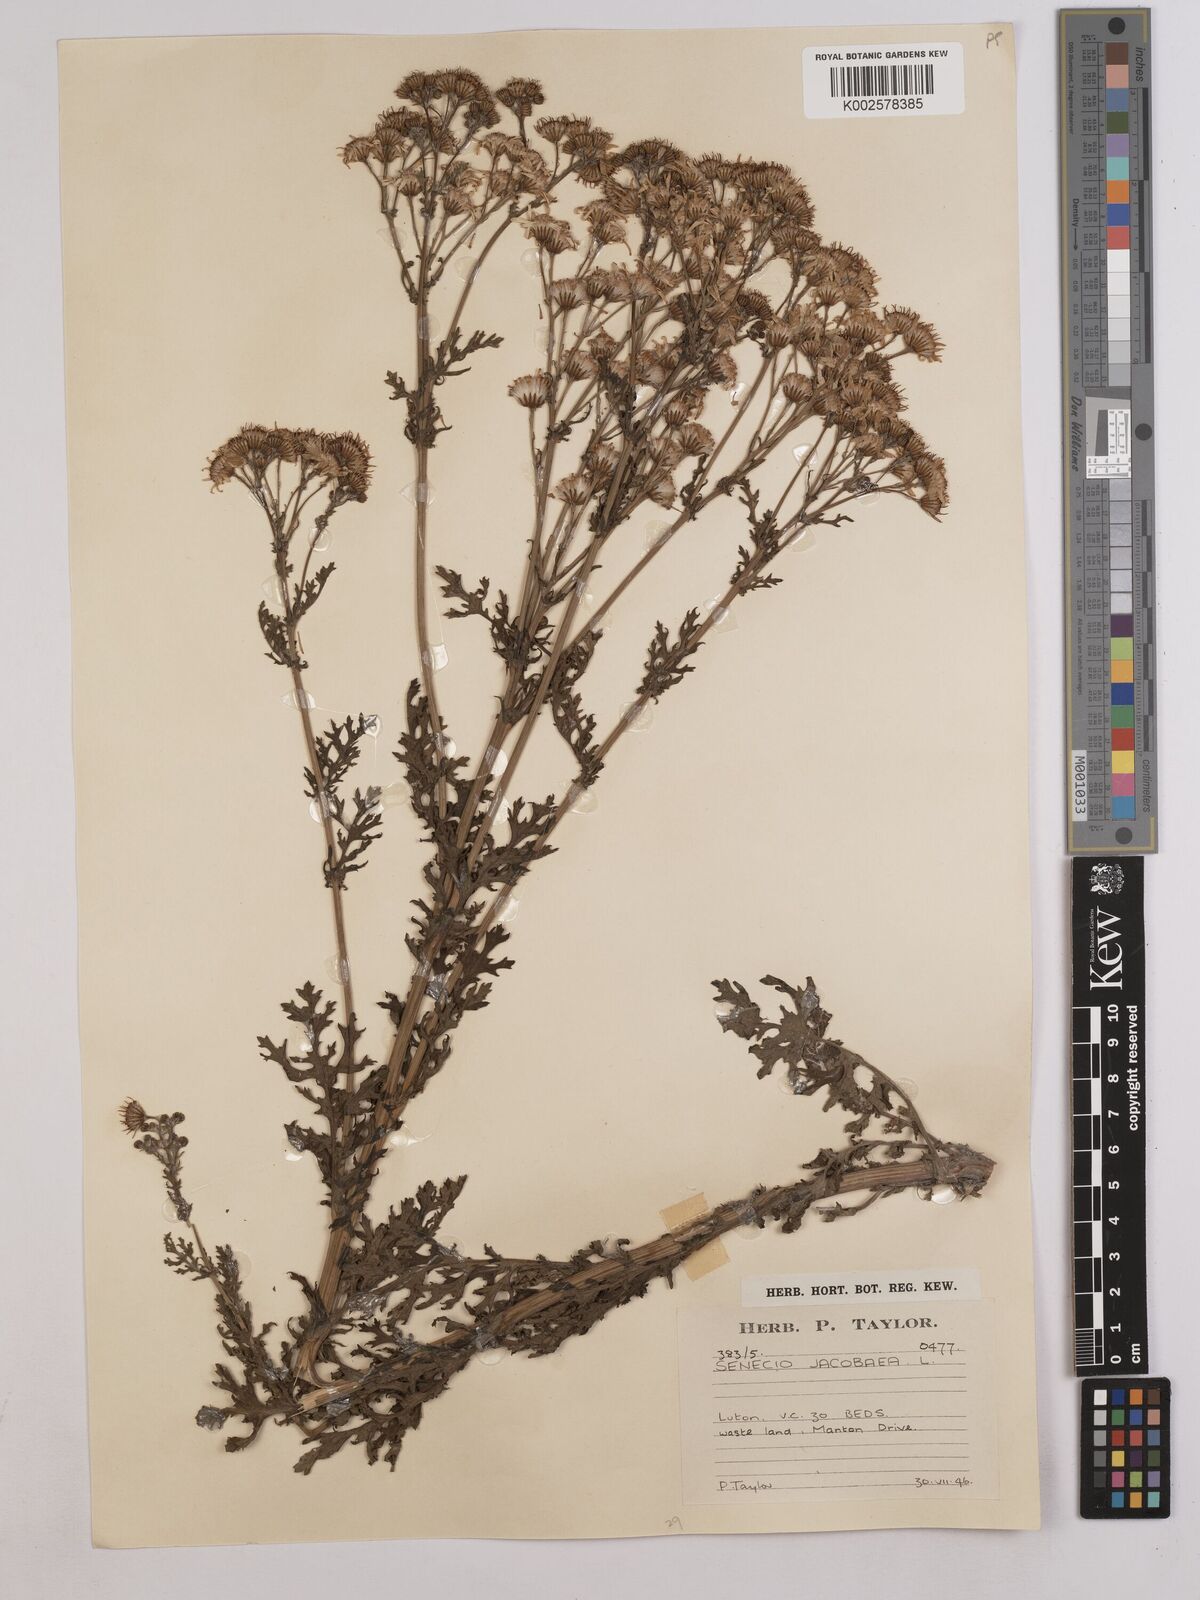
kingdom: Plantae
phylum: Tracheophyta
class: Magnoliopsida
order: Asterales
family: Asteraceae
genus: Jacobaea
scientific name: Jacobaea vulgaris
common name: Stinking willie
